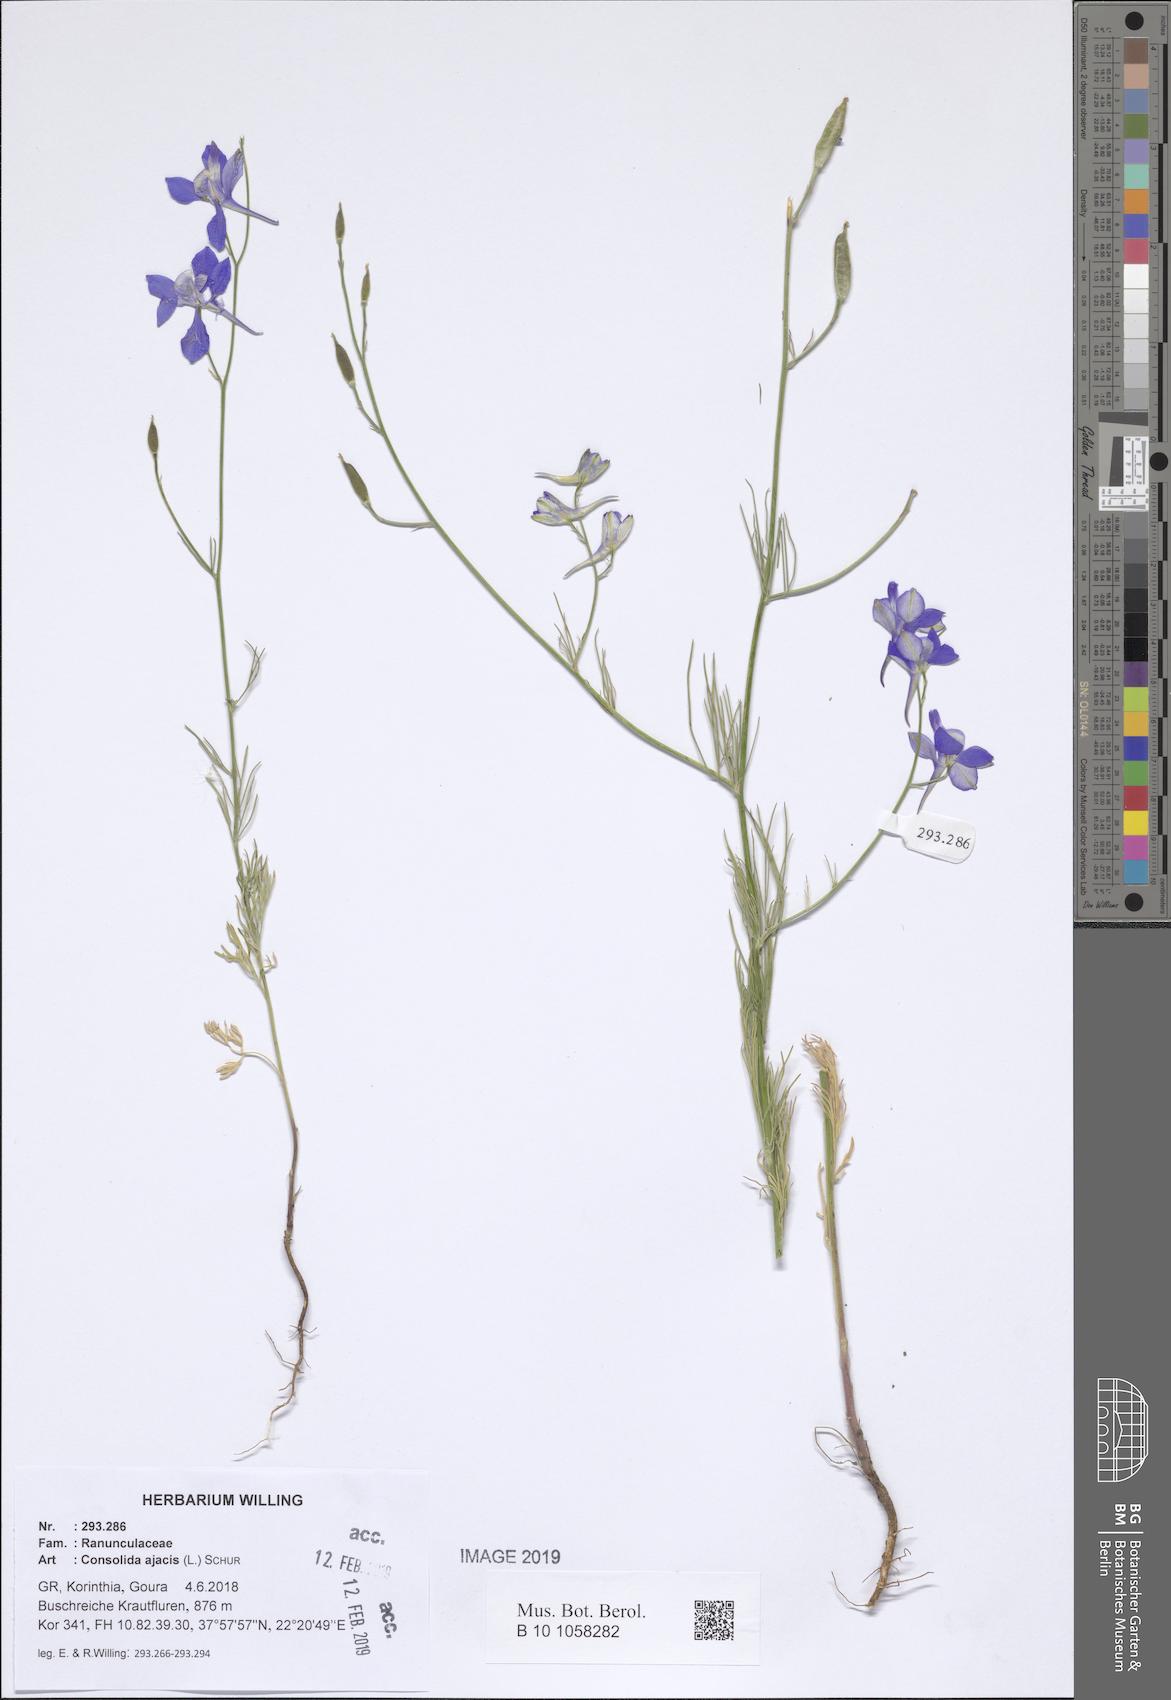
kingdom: Plantae
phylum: Tracheophyta
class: Magnoliopsida
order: Ranunculales
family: Ranunculaceae
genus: Delphinium
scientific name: Delphinium ajacis
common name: Doubtful knight's-spur
